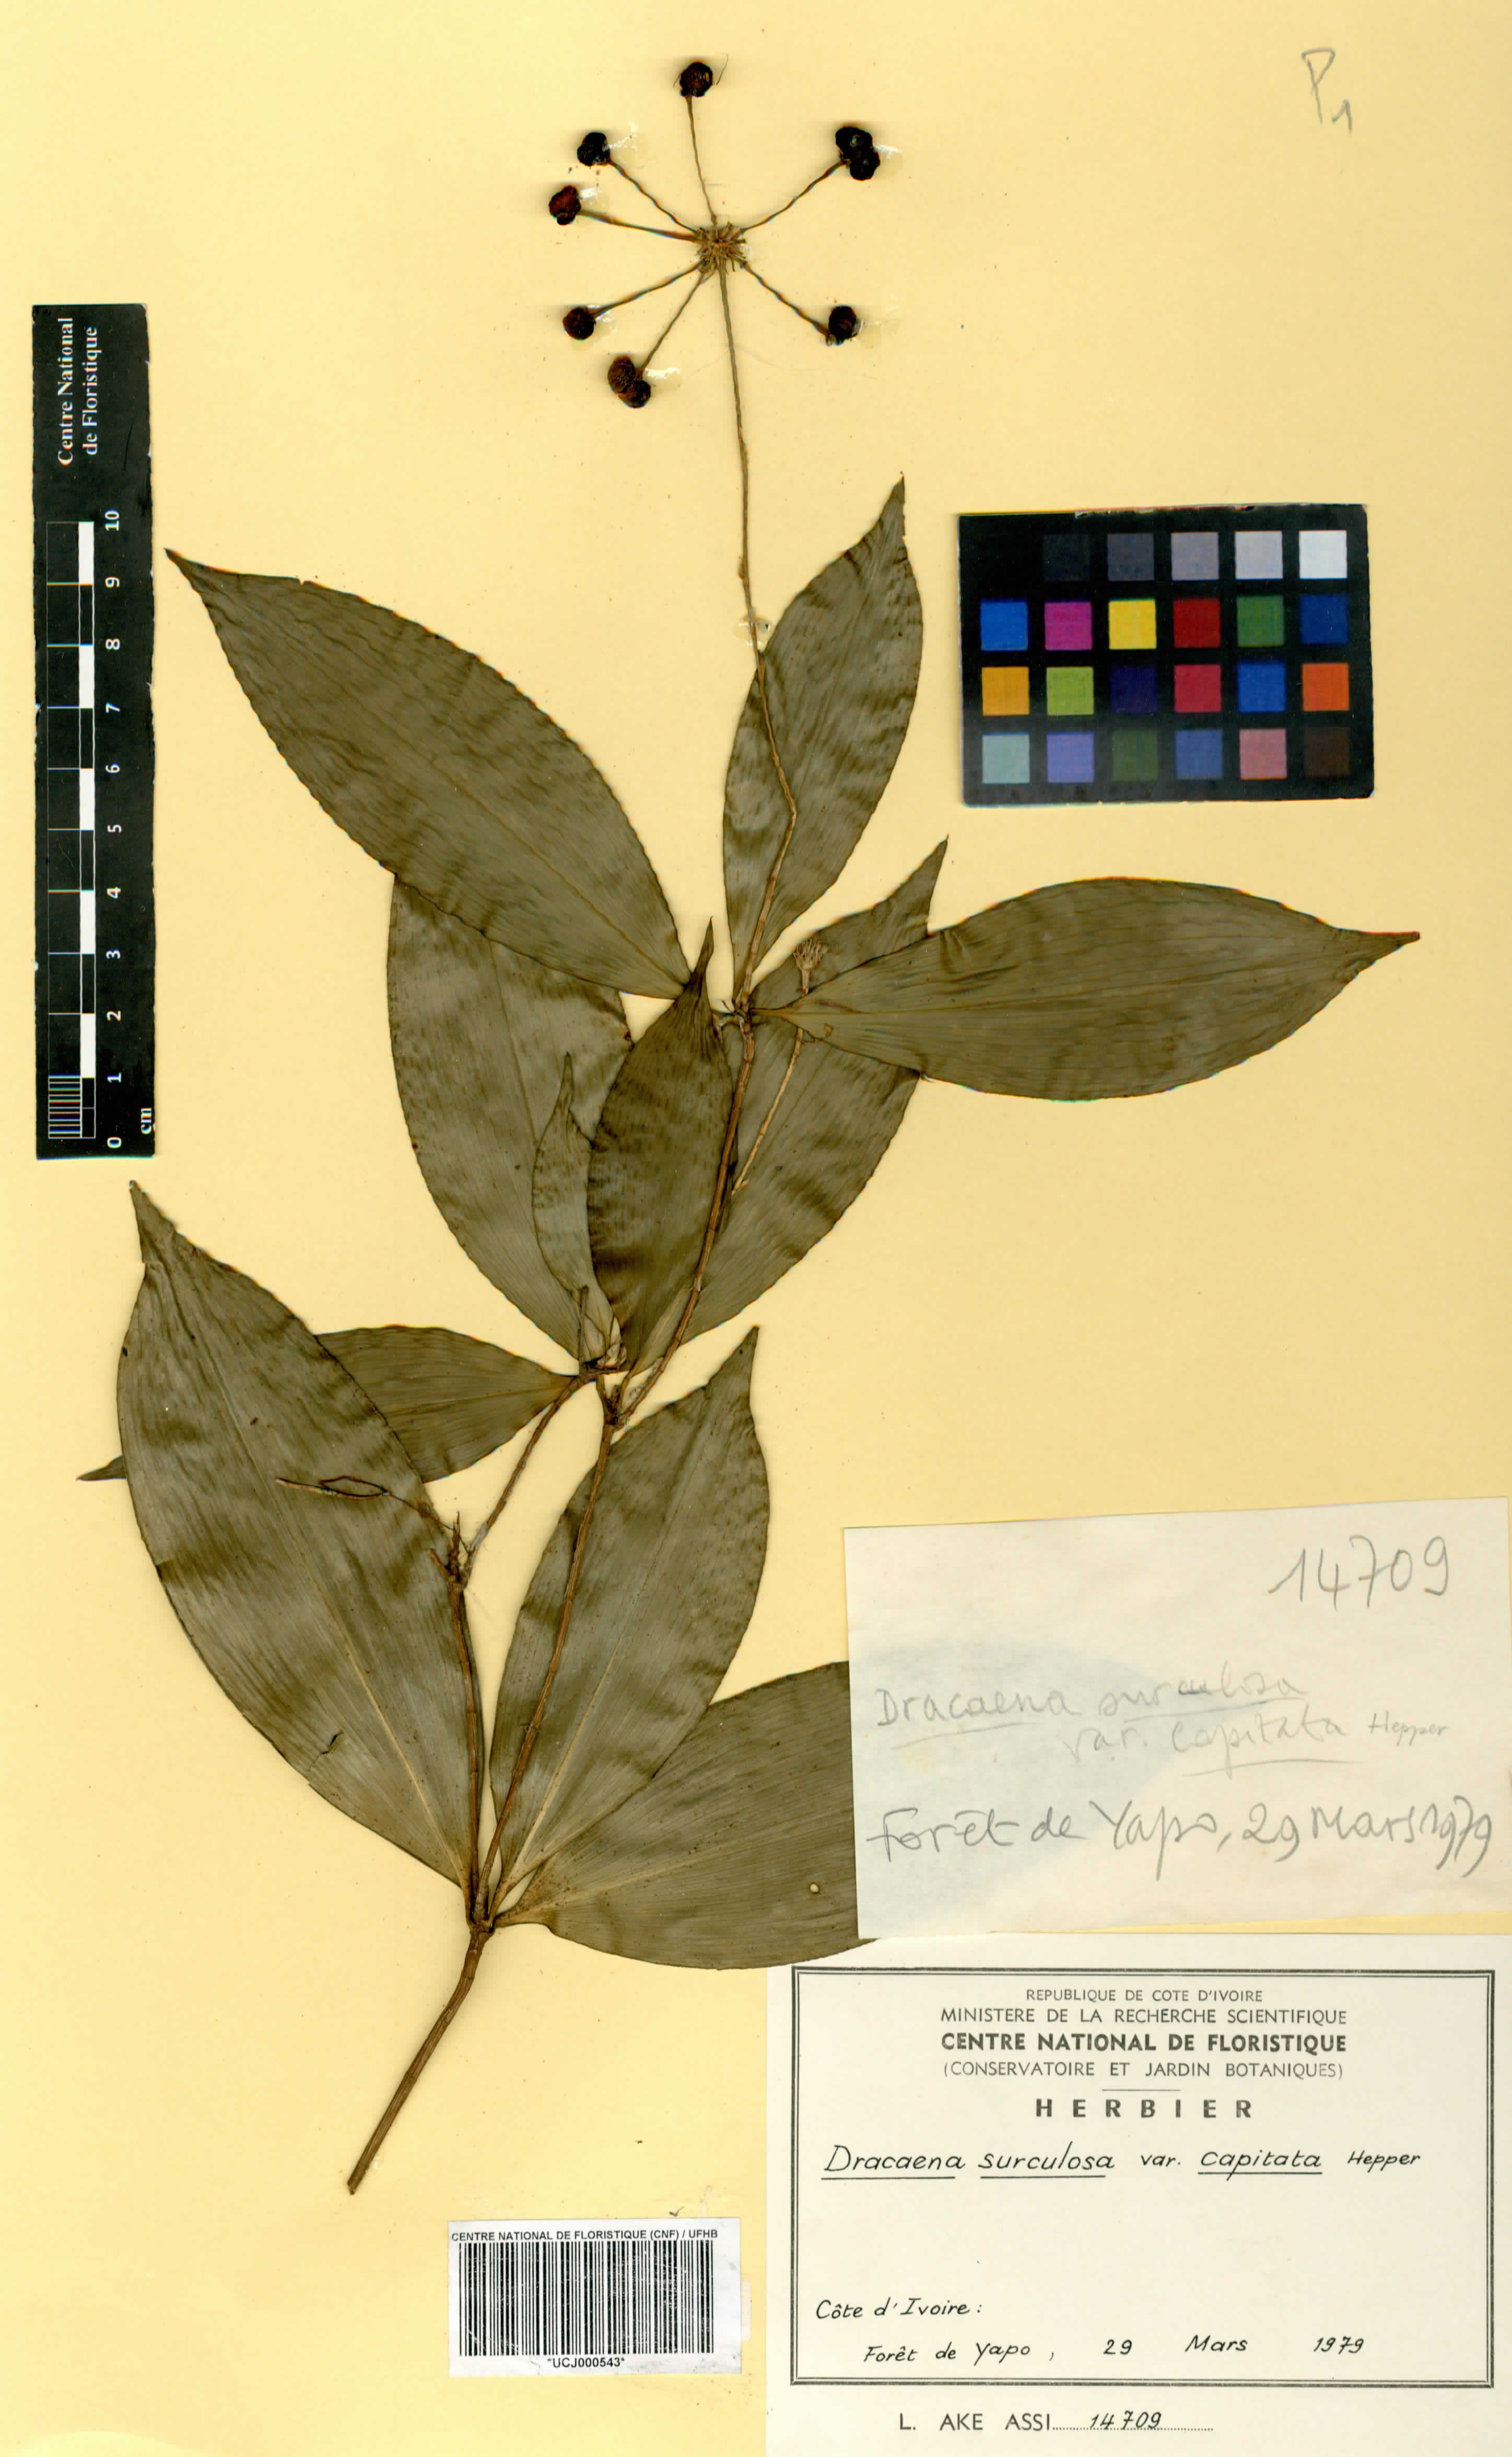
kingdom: Plantae
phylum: Tracheophyta
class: Liliopsida
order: Asparagales
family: Asparagaceae
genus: Dracaena
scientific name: Dracaena surculosa
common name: Spotted dracaena
